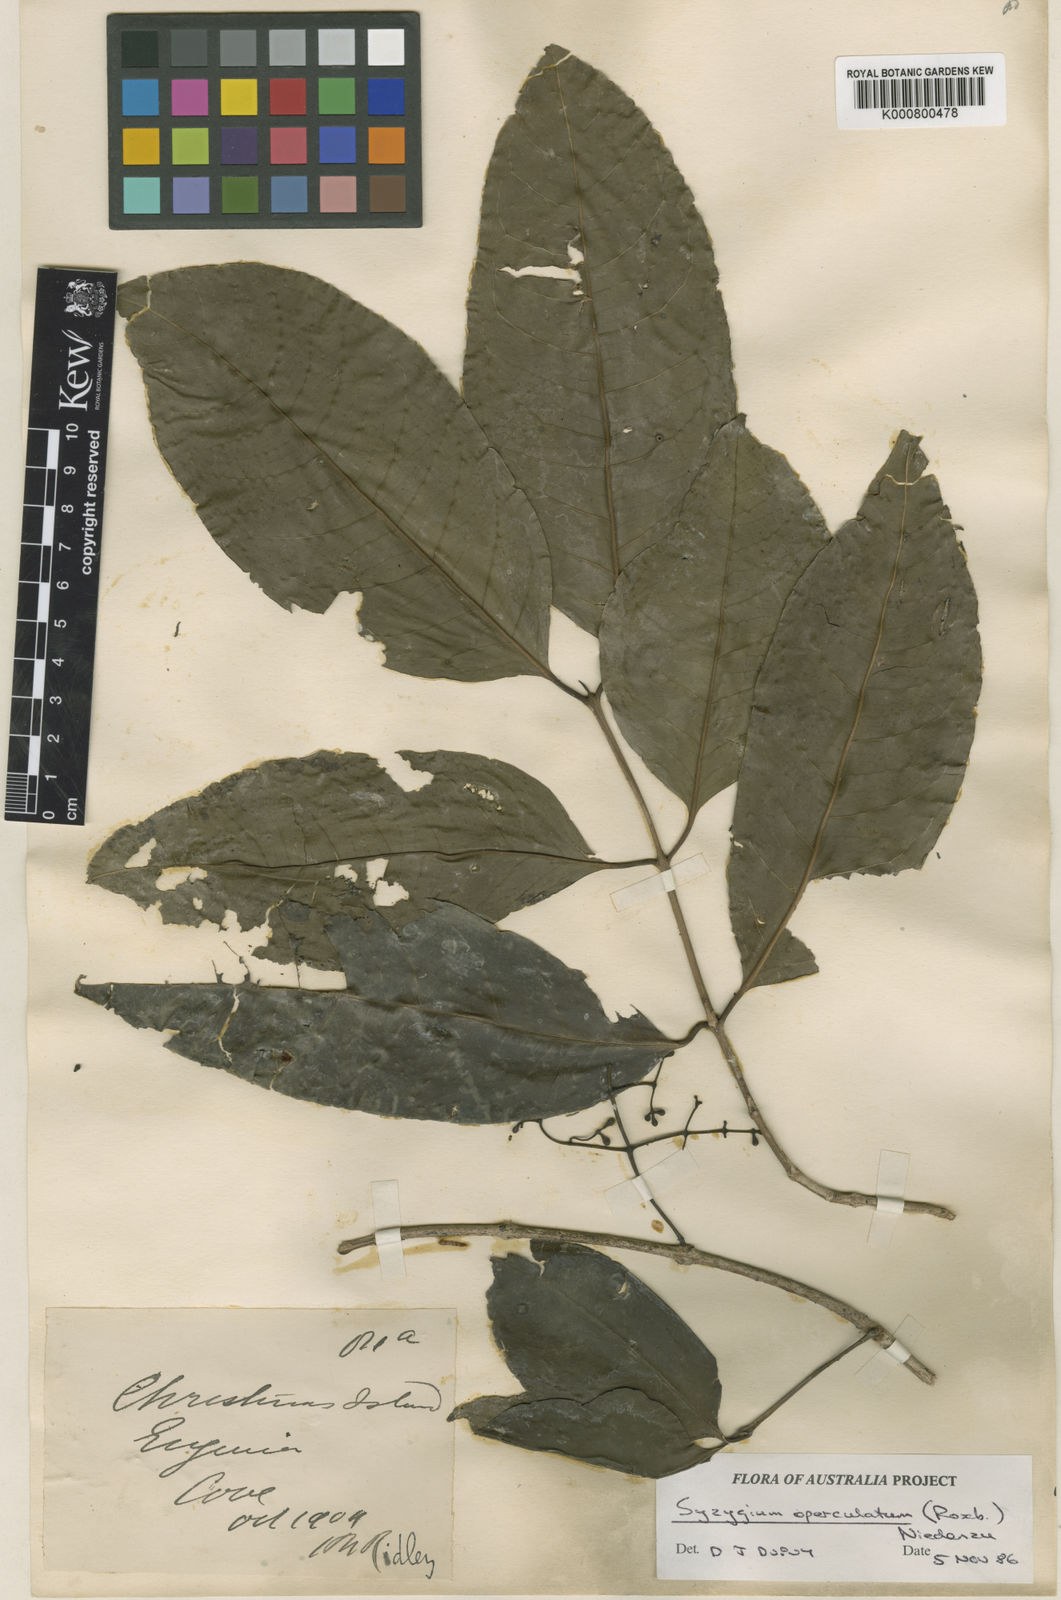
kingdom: Plantae
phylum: Tracheophyta
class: Magnoliopsida
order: Myrtales
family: Myrtaceae
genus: Syzygium
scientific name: Syzygium nervosum
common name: Daly river satinash
